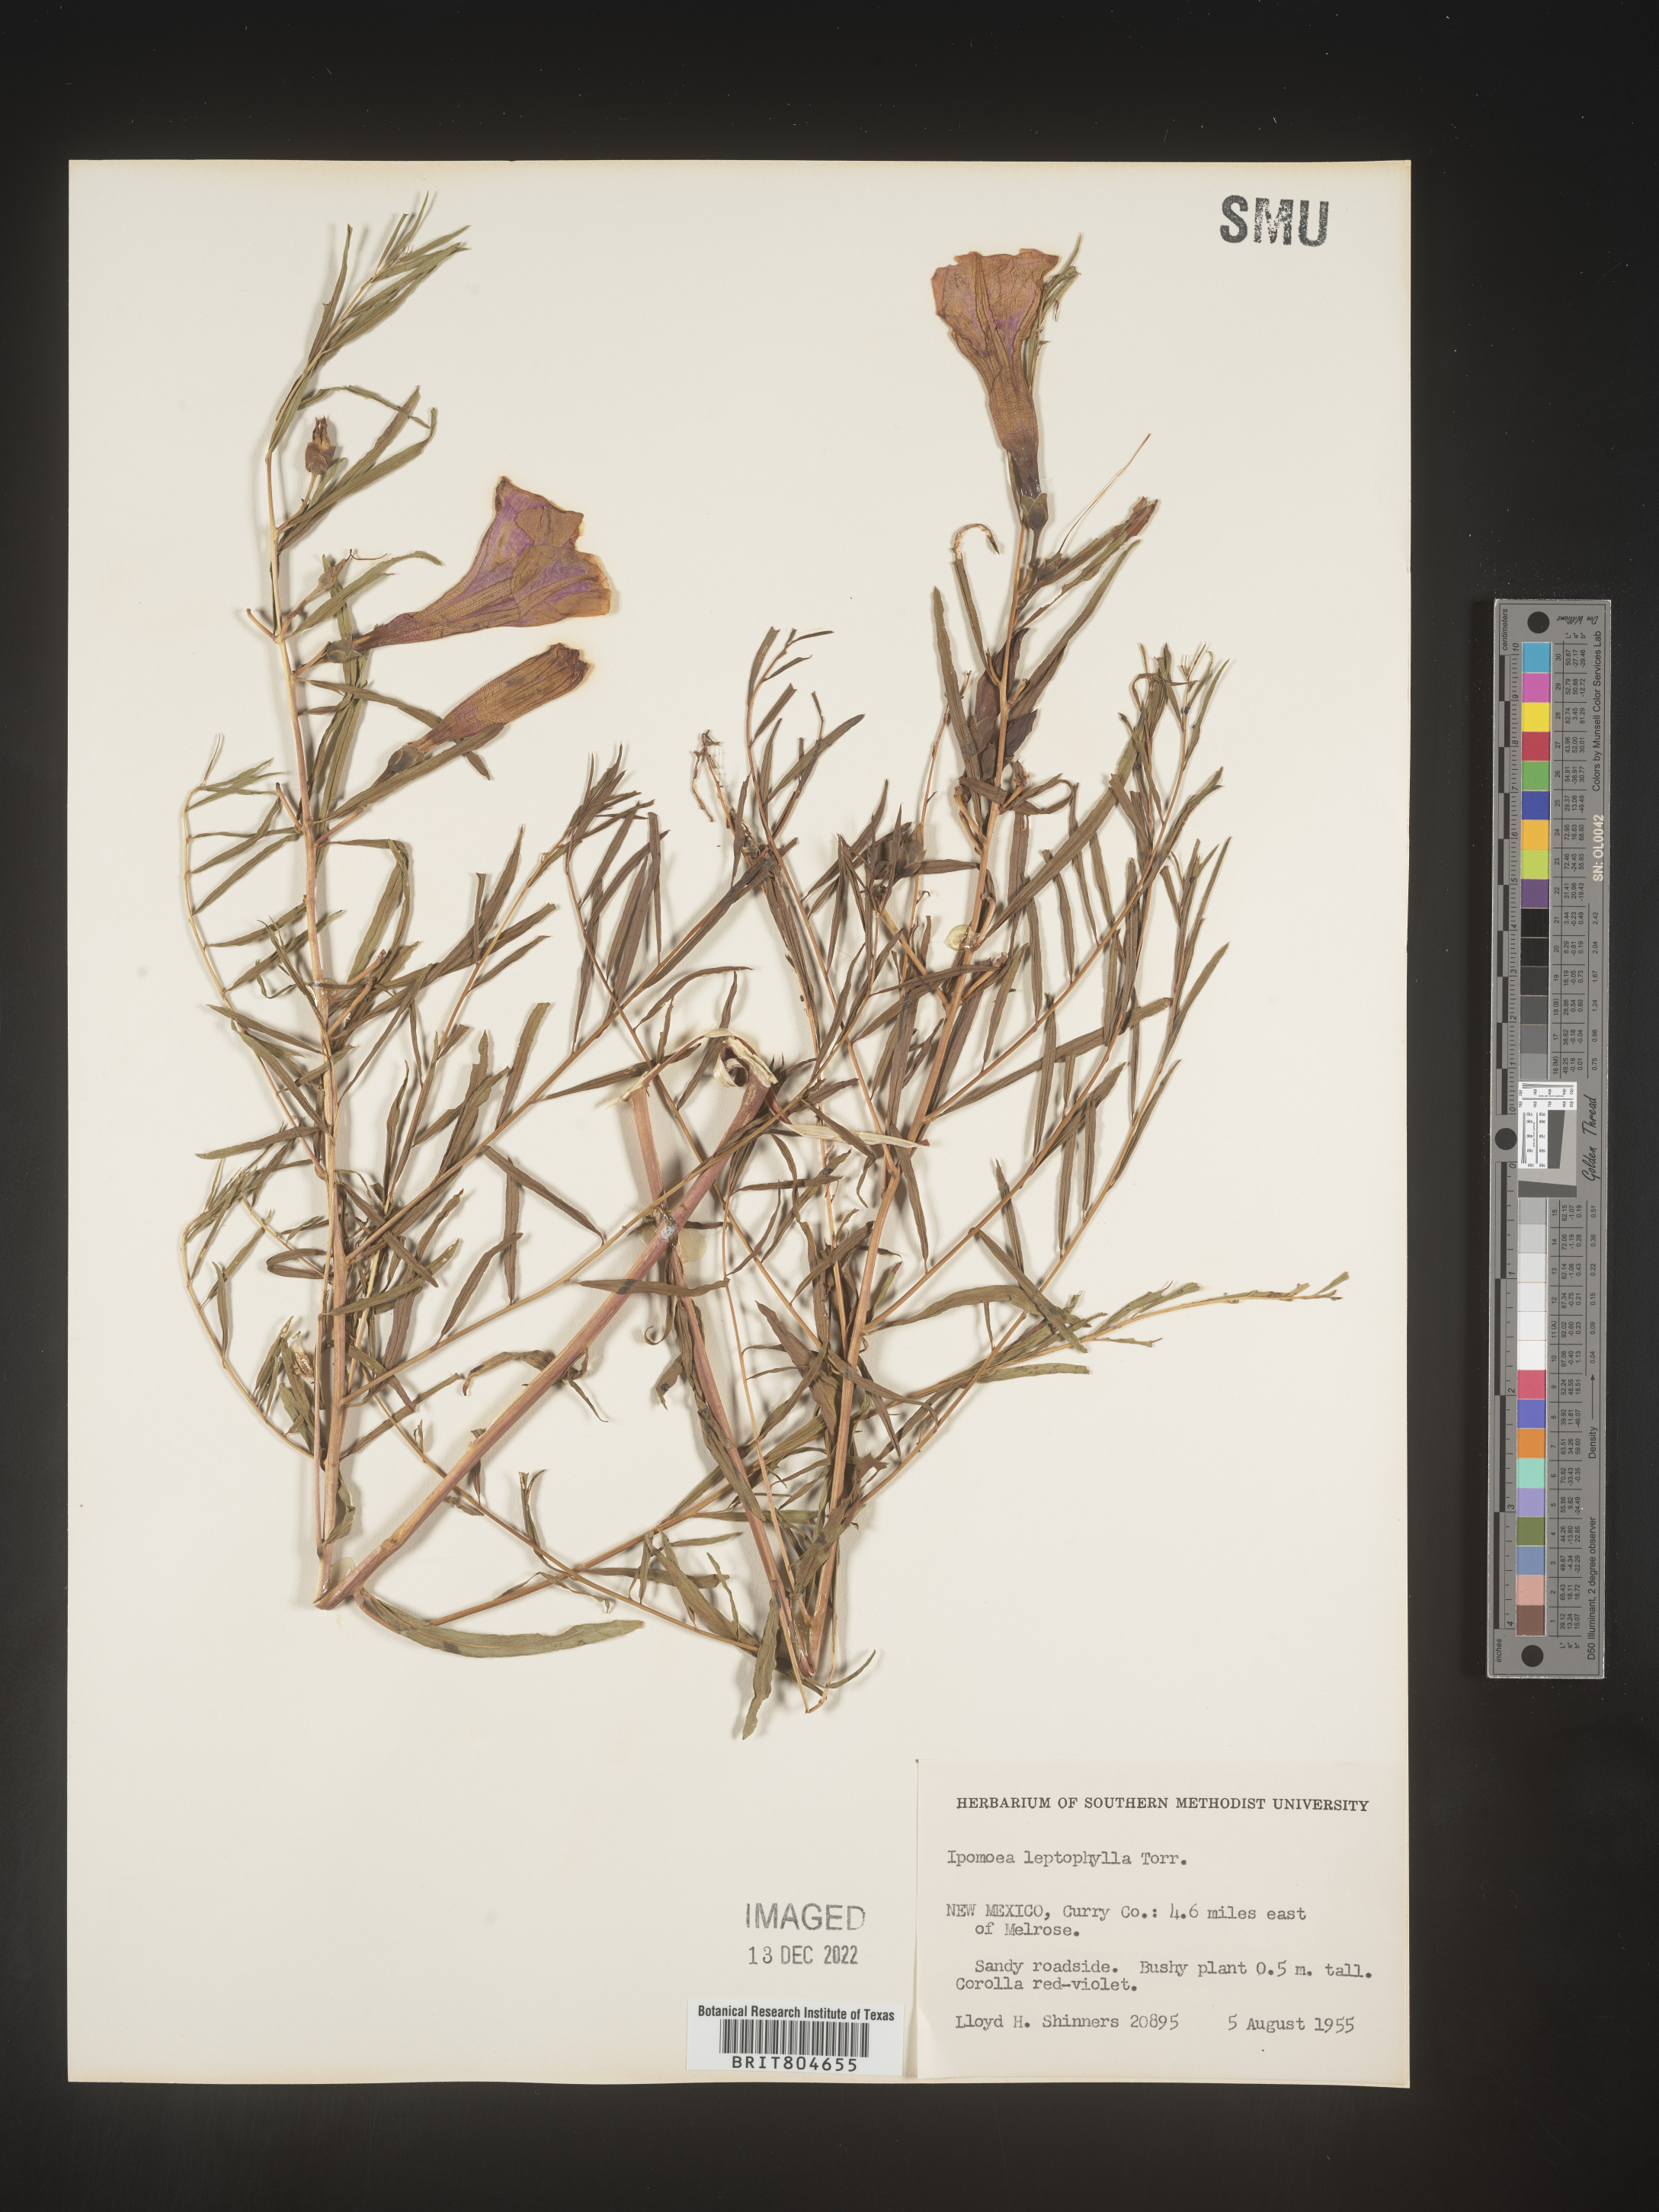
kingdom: Plantae
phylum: Tracheophyta
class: Magnoliopsida
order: Solanales
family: Convolvulaceae
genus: Ipomoea
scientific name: Ipomoea leptophylla
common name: Bush moonflower
